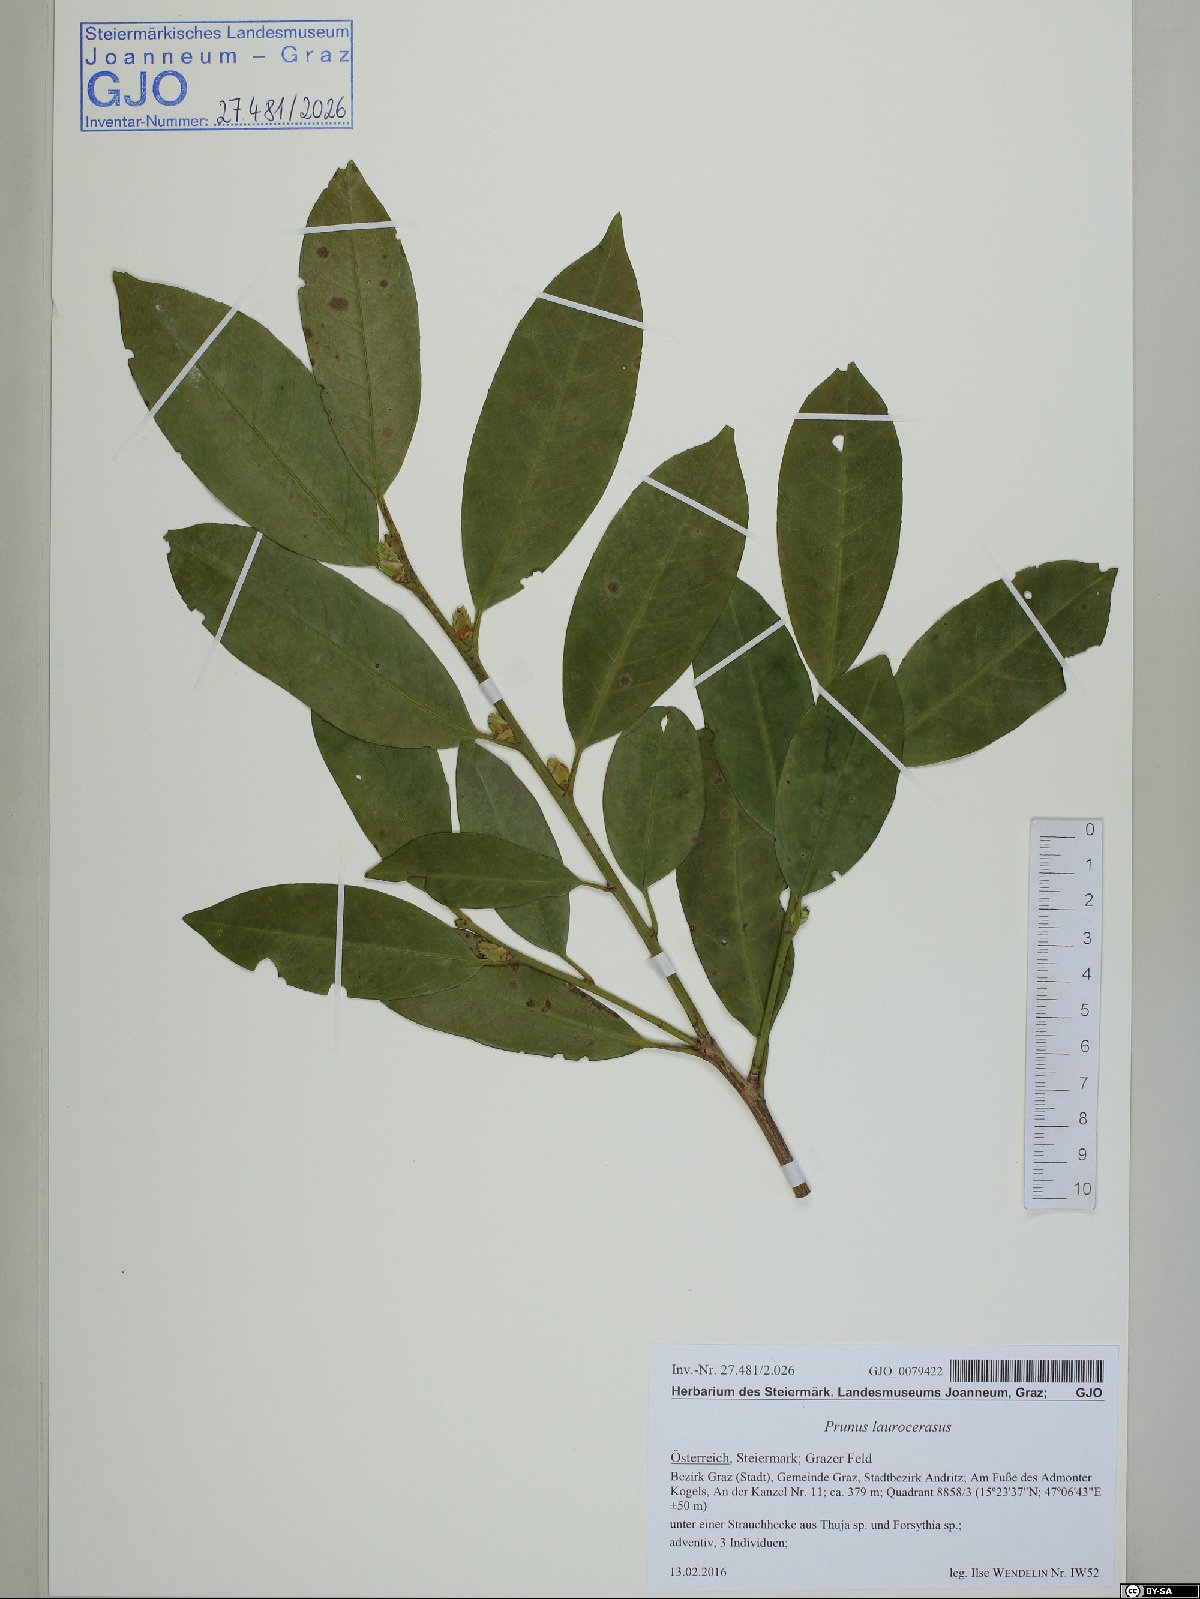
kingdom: Plantae
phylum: Tracheophyta
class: Magnoliopsida
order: Rosales
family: Rosaceae
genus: Prunus
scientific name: Prunus laurocerasus
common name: Cherry laurel
